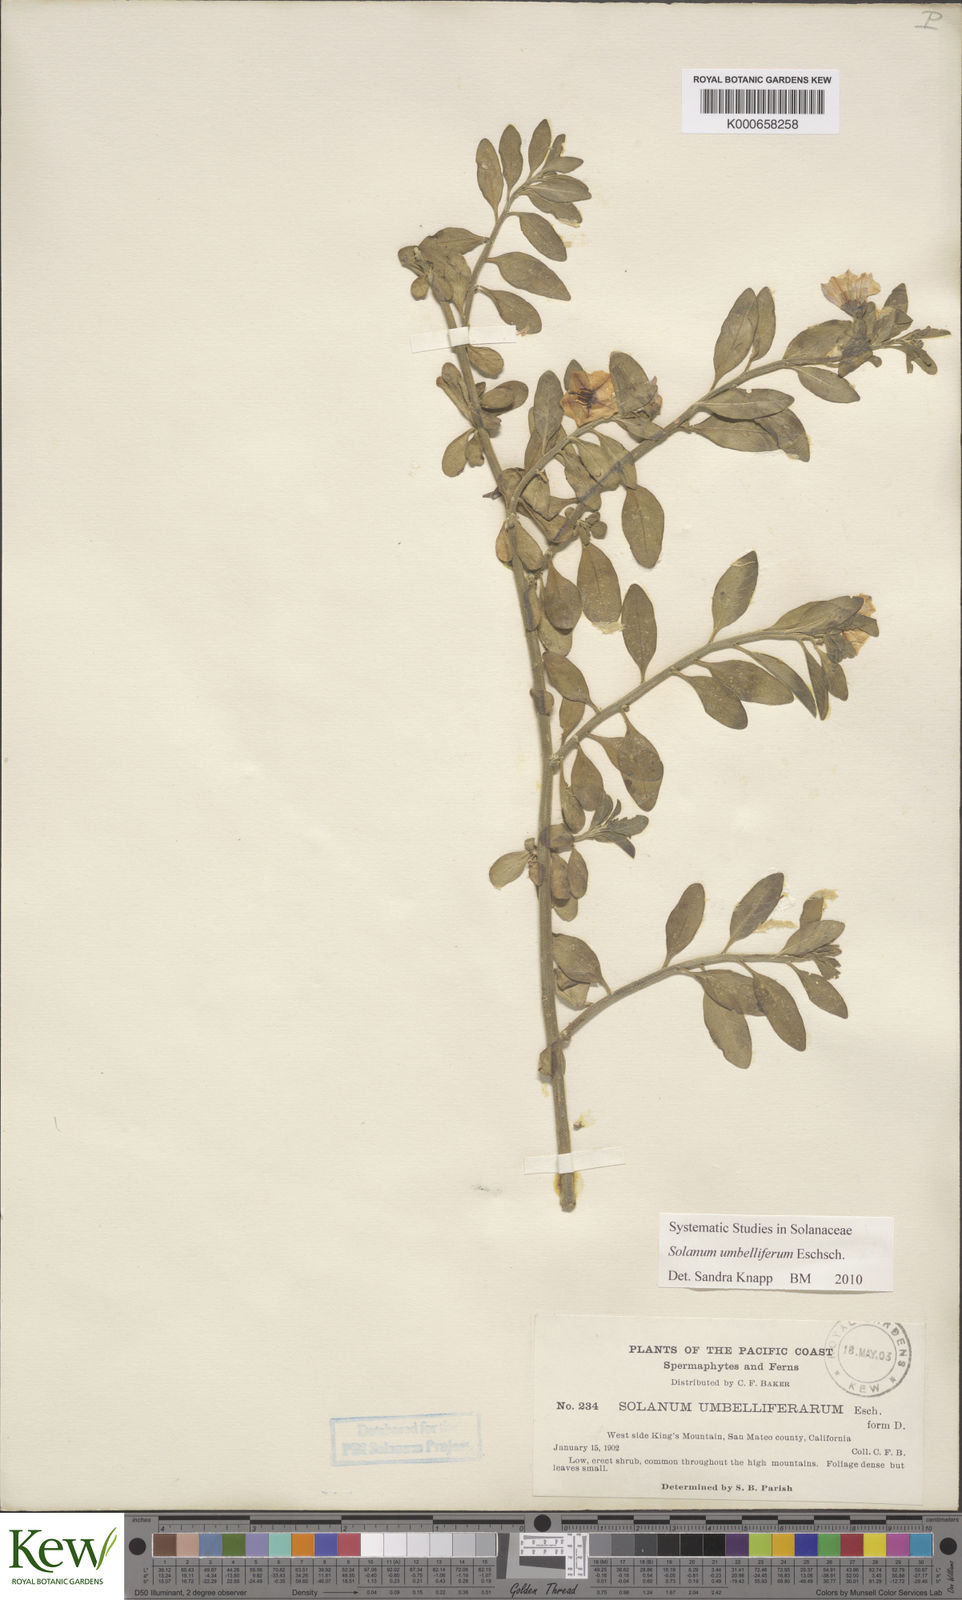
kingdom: Plantae
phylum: Tracheophyta
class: Magnoliopsida
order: Solanales
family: Solanaceae
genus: Solanum
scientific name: Solanum umbelliferum
